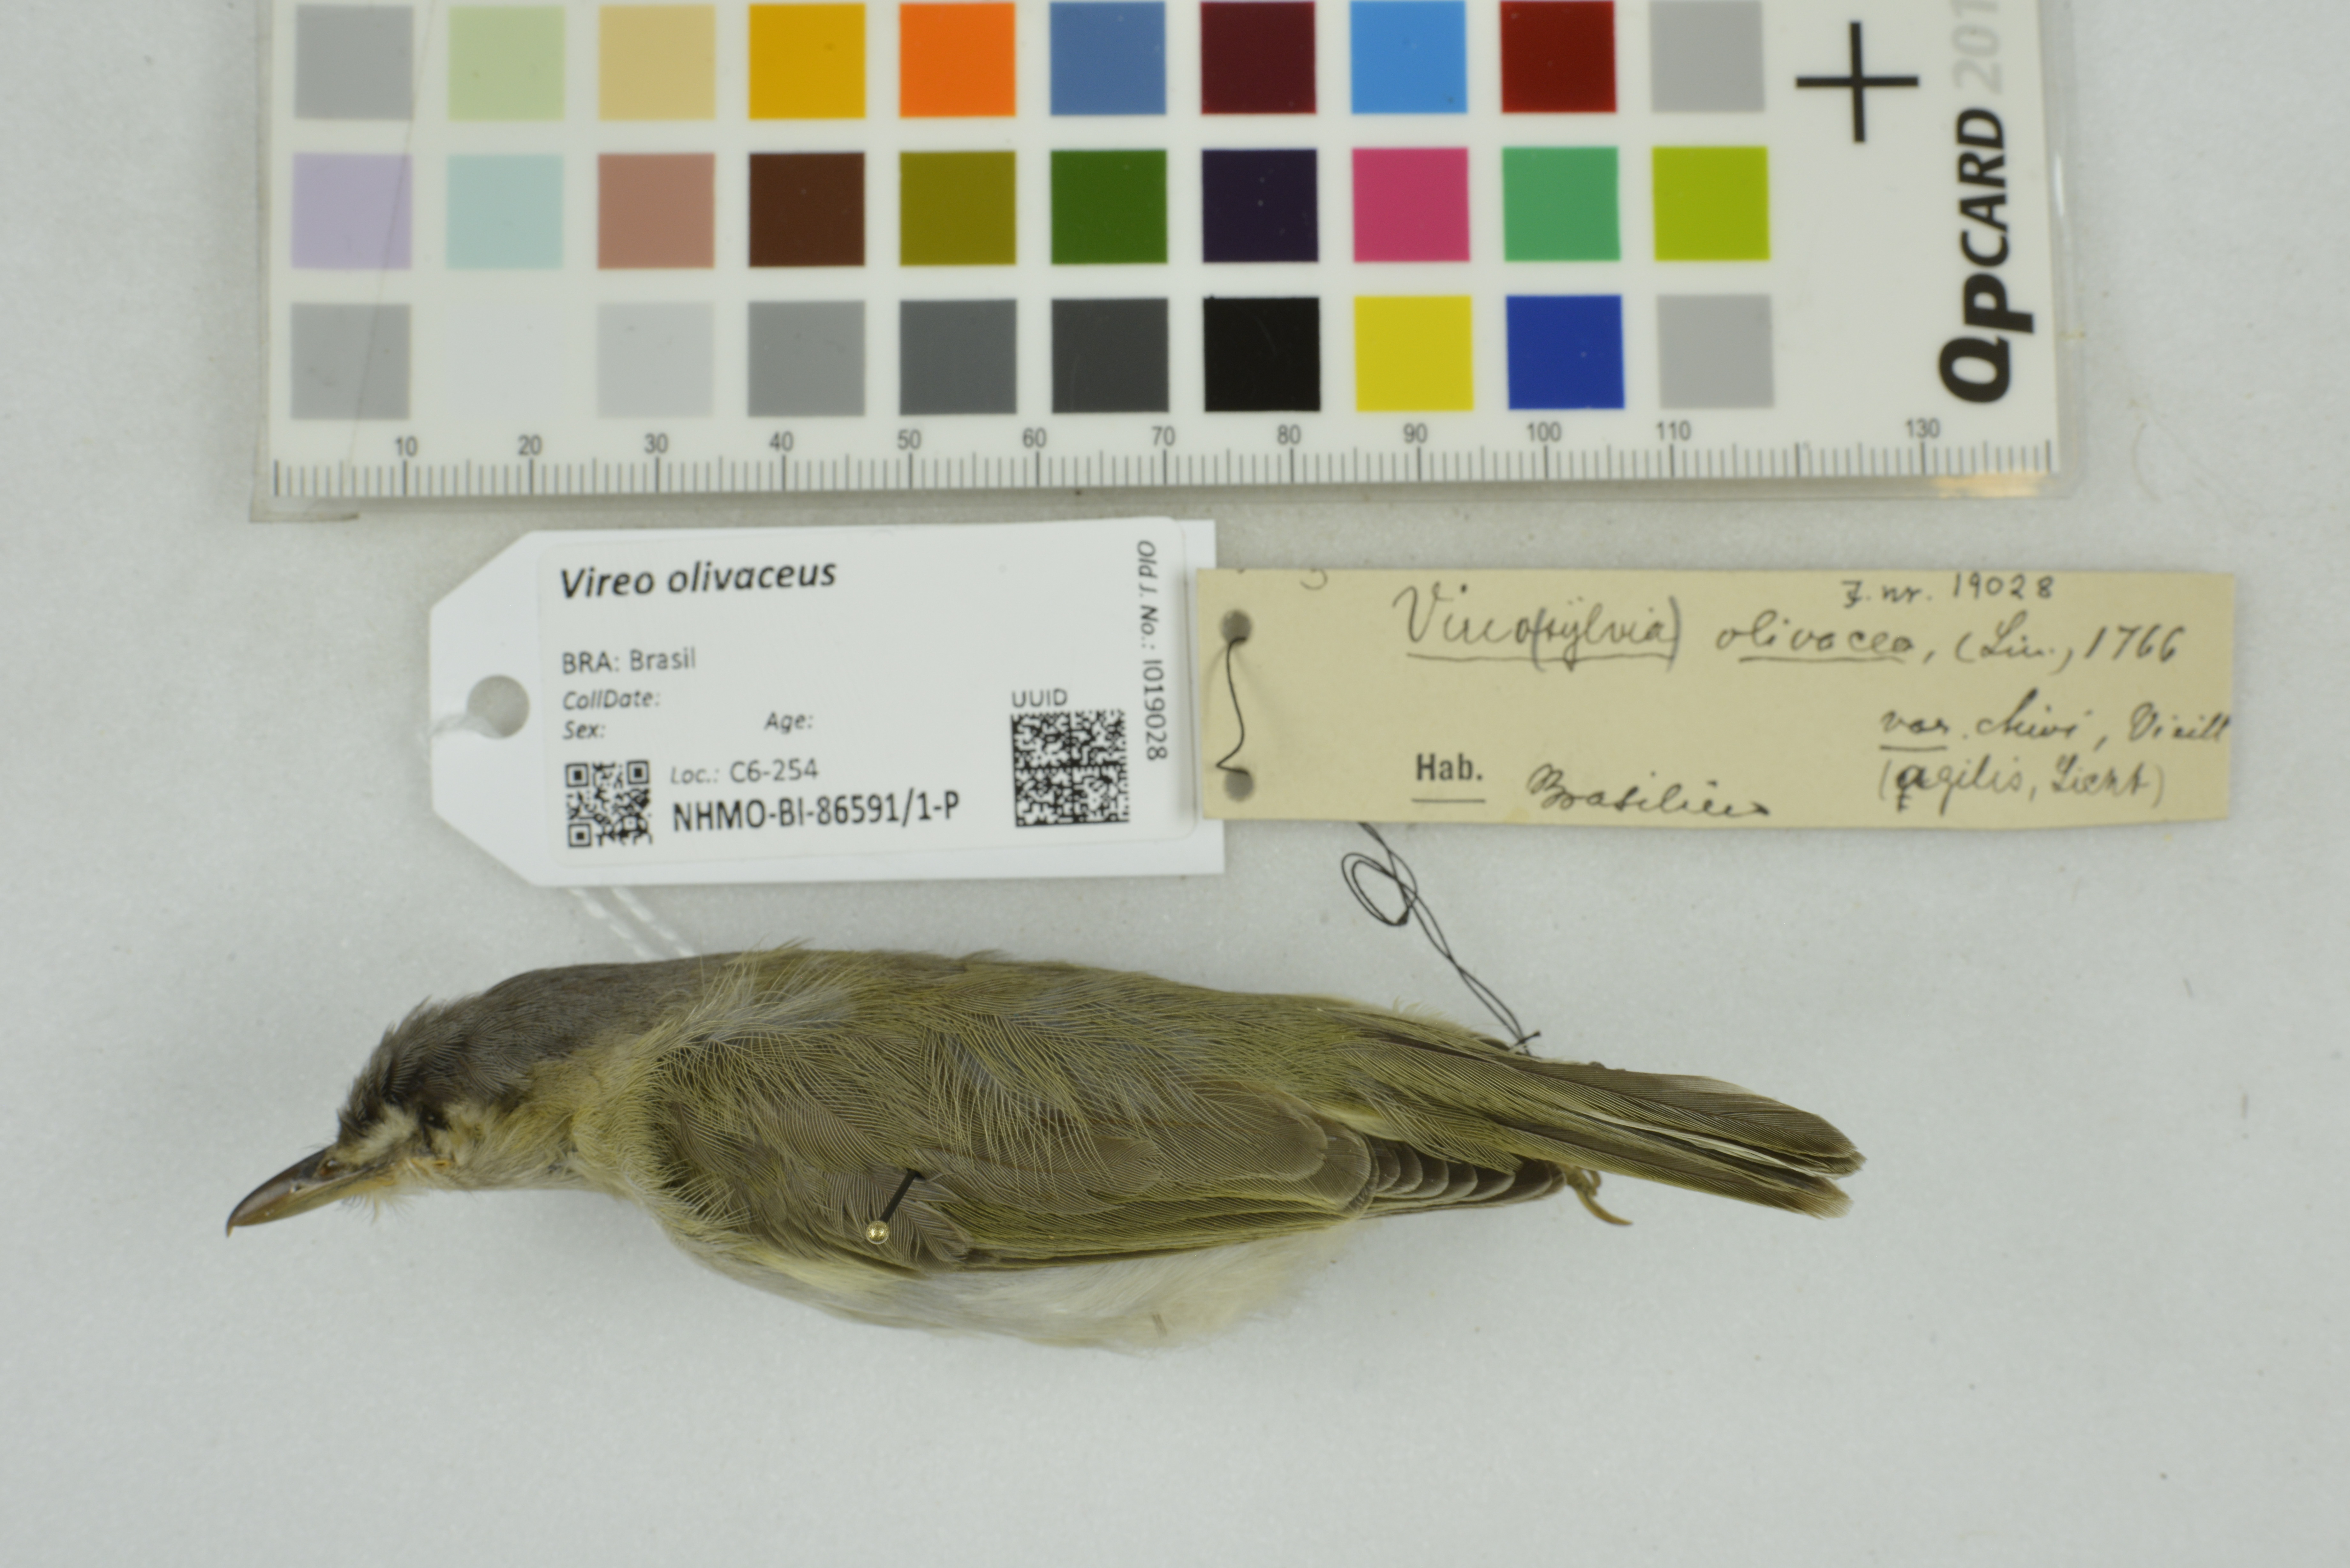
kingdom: Animalia
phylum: Chordata
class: Aves
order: Passeriformes
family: Vireonidae
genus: Vireo
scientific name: Vireo olivaceus
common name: Red-eyed vireo
